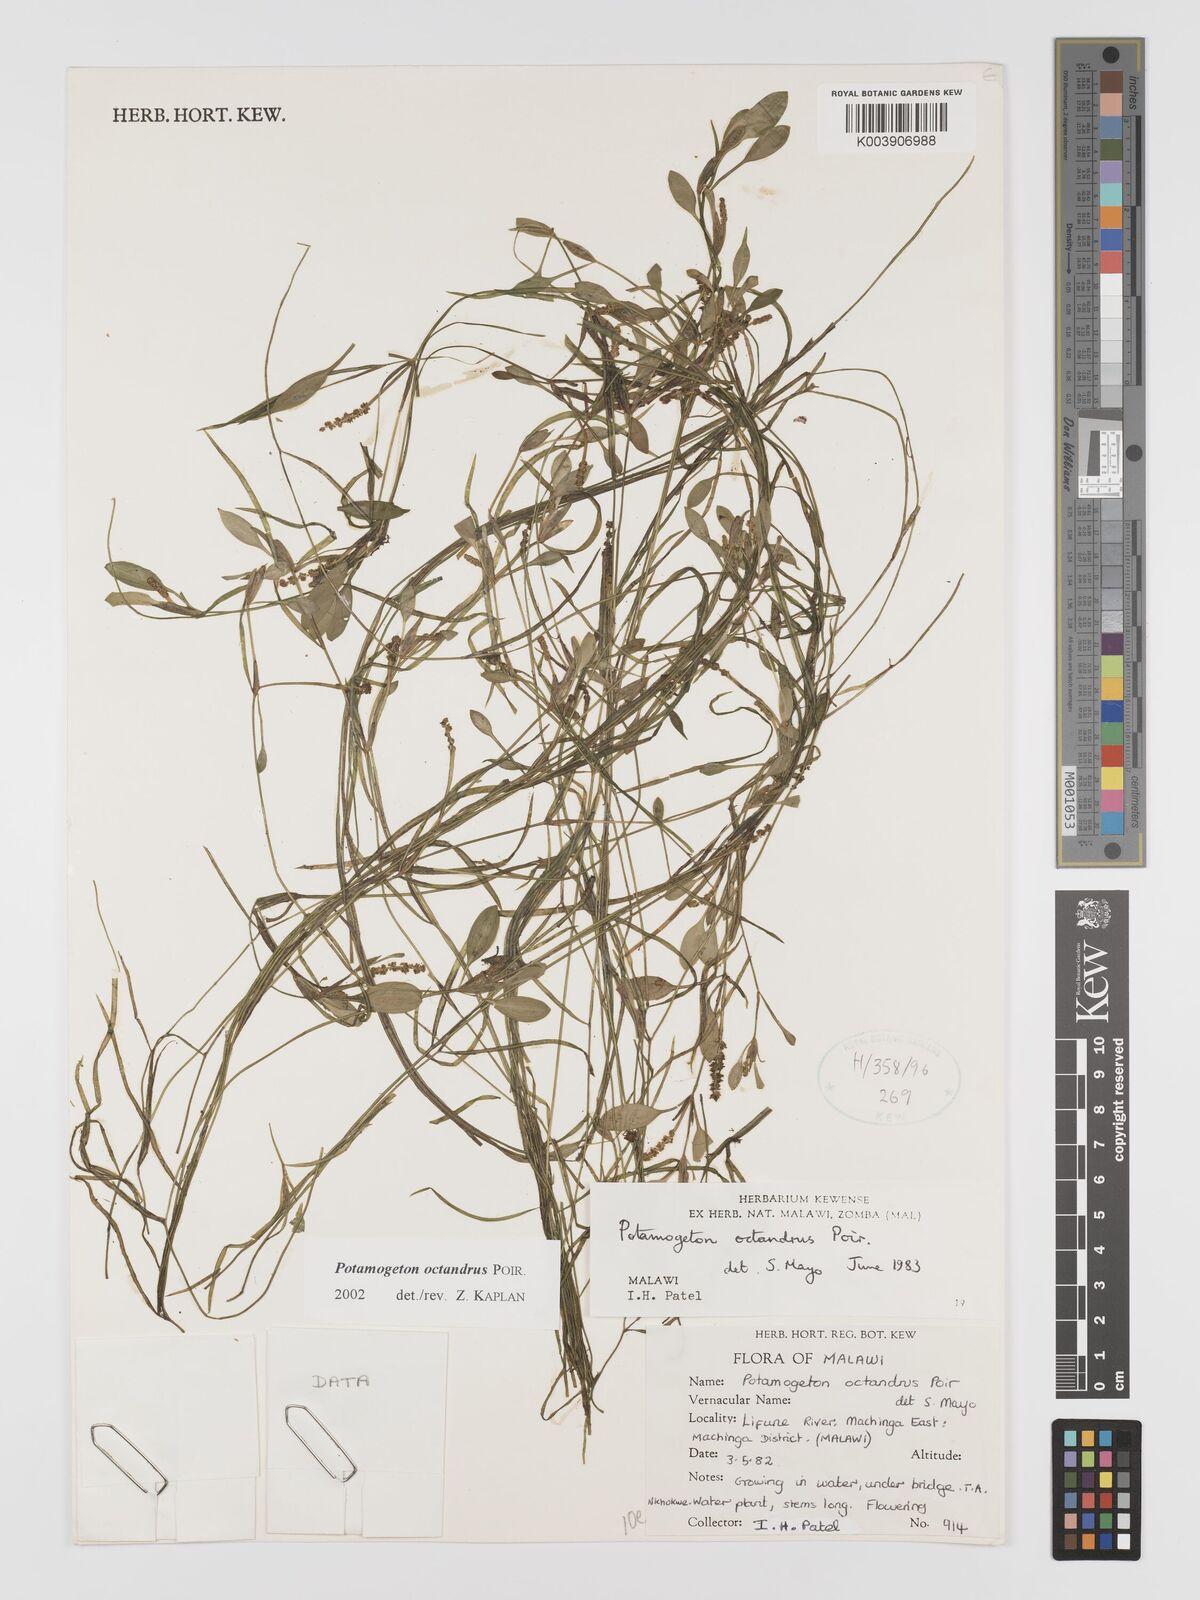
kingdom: Plantae
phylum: Tracheophyta
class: Liliopsida
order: Alismatales
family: Potamogetonaceae
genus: Potamogeton
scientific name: Potamogeton octandrus
